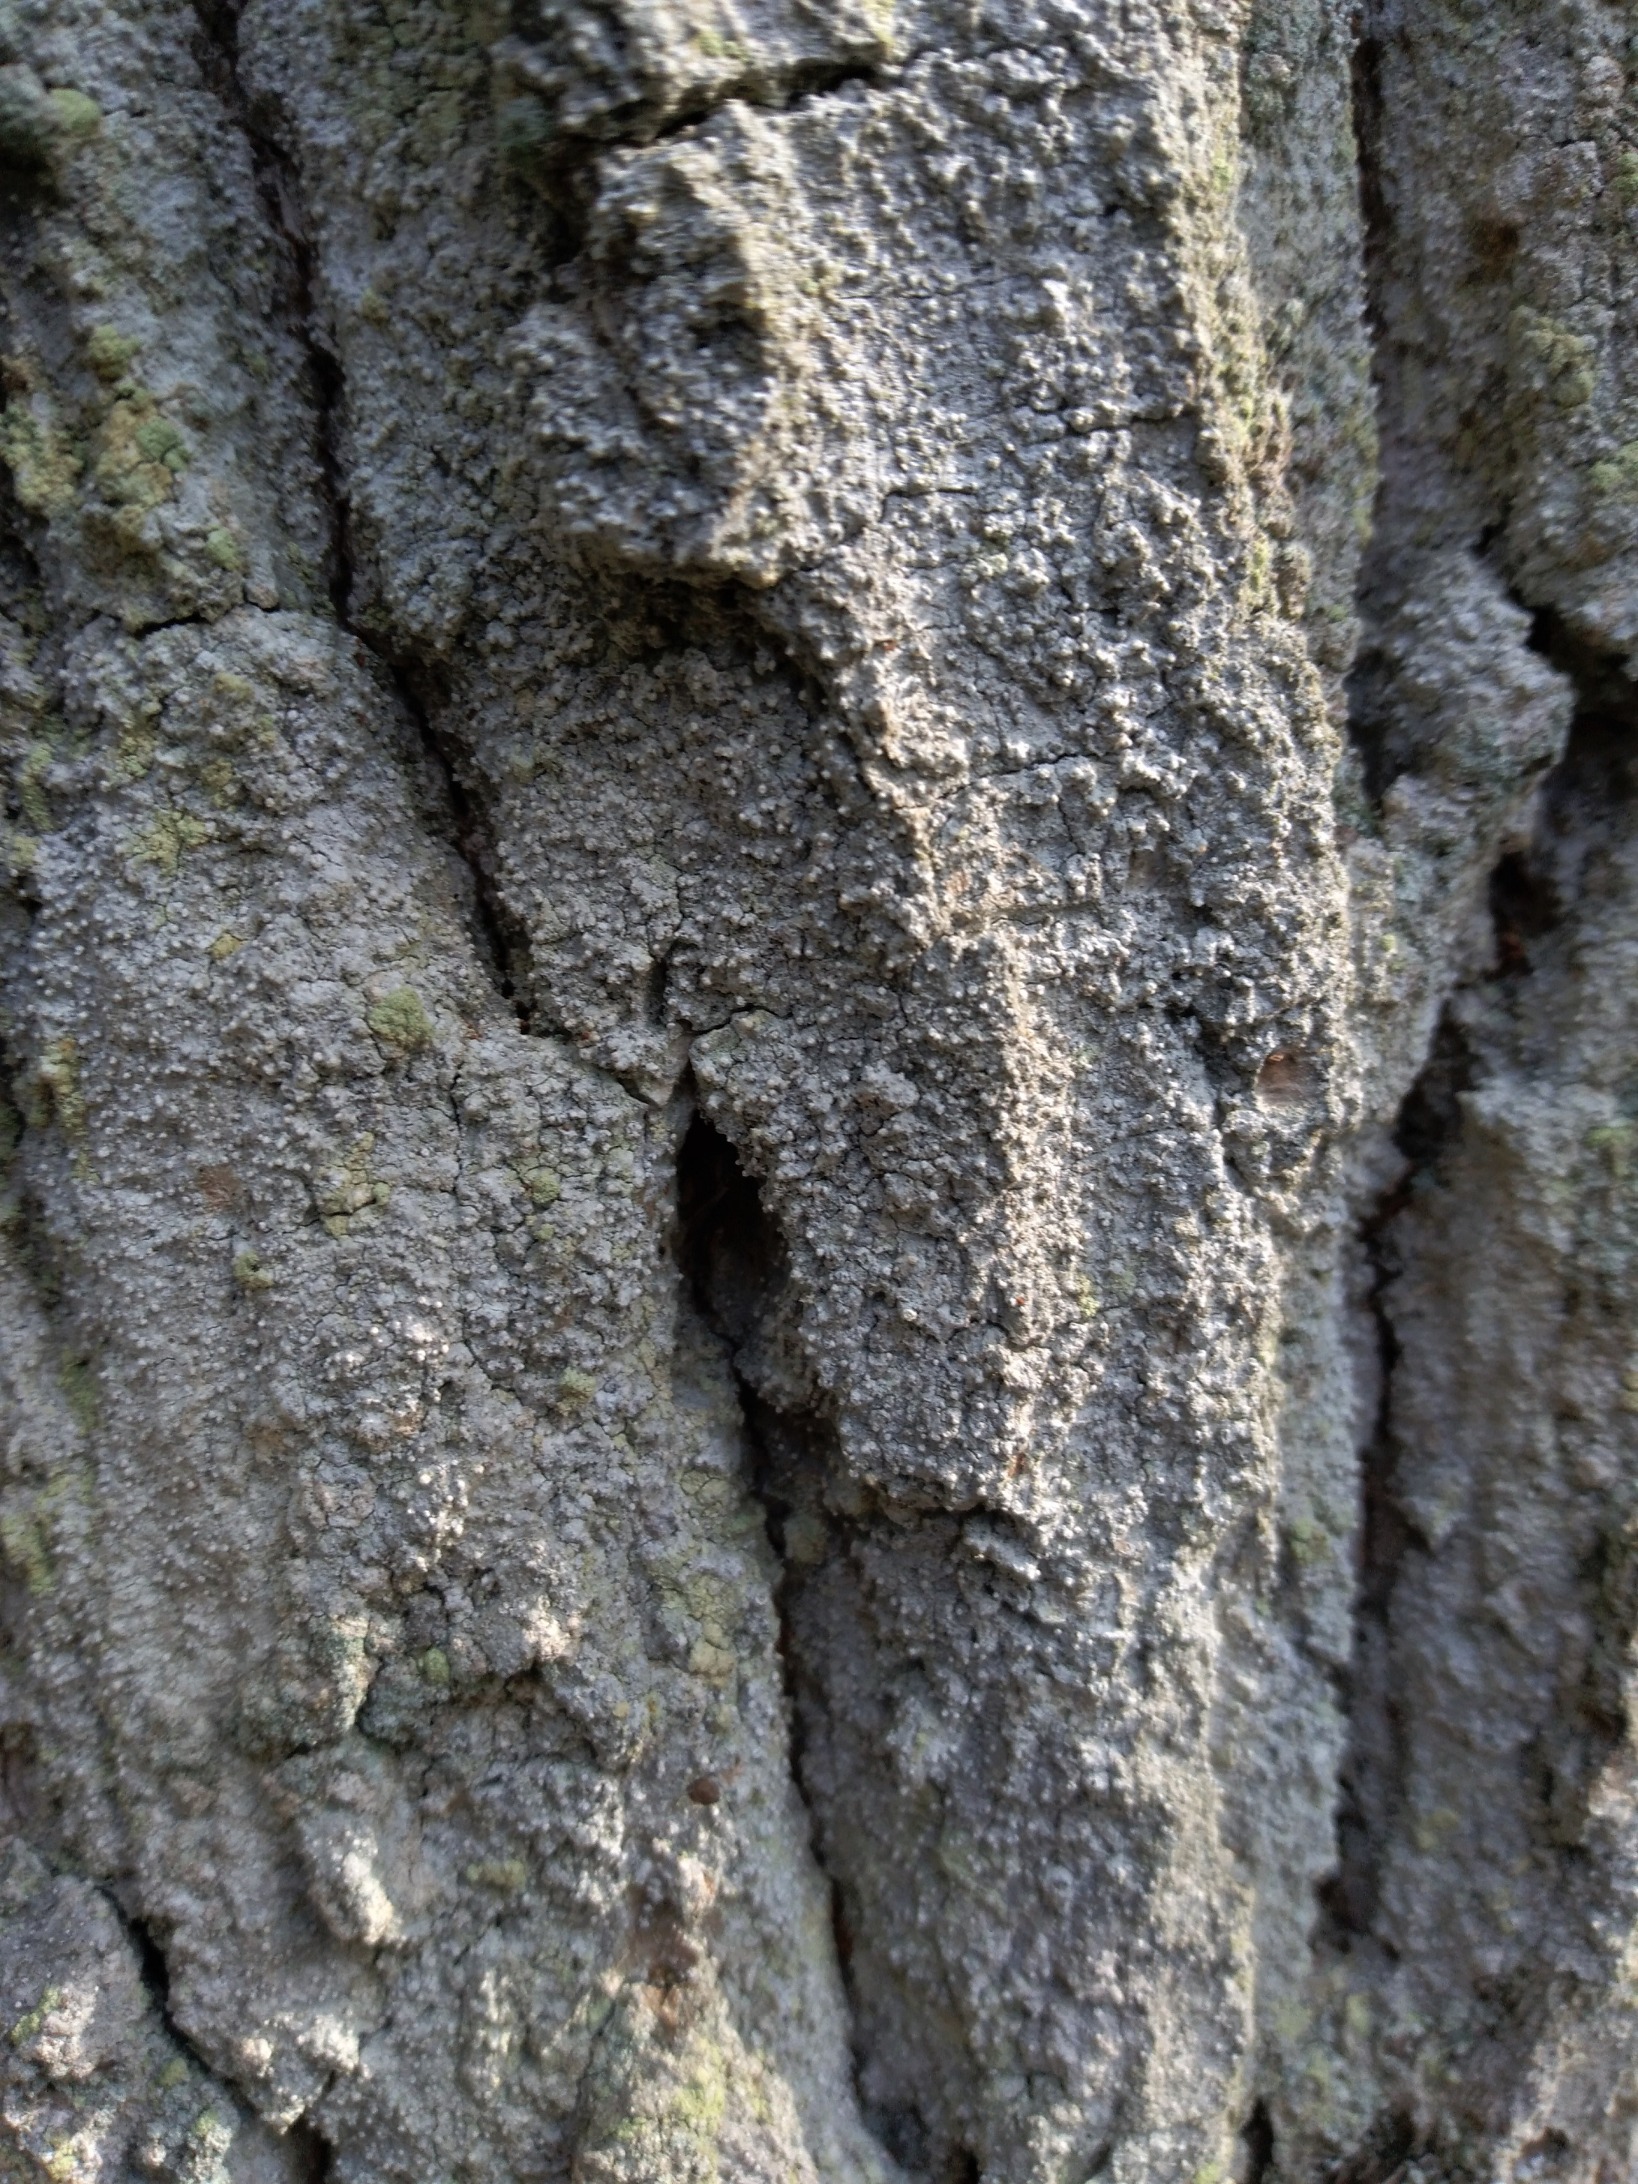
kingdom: Fungi
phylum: Ascomycota
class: Arthoniomycetes
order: Arthoniales
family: Roccellaceae
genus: Lecanactis
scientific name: Lecanactis abietina
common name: Grå dugskivelav
